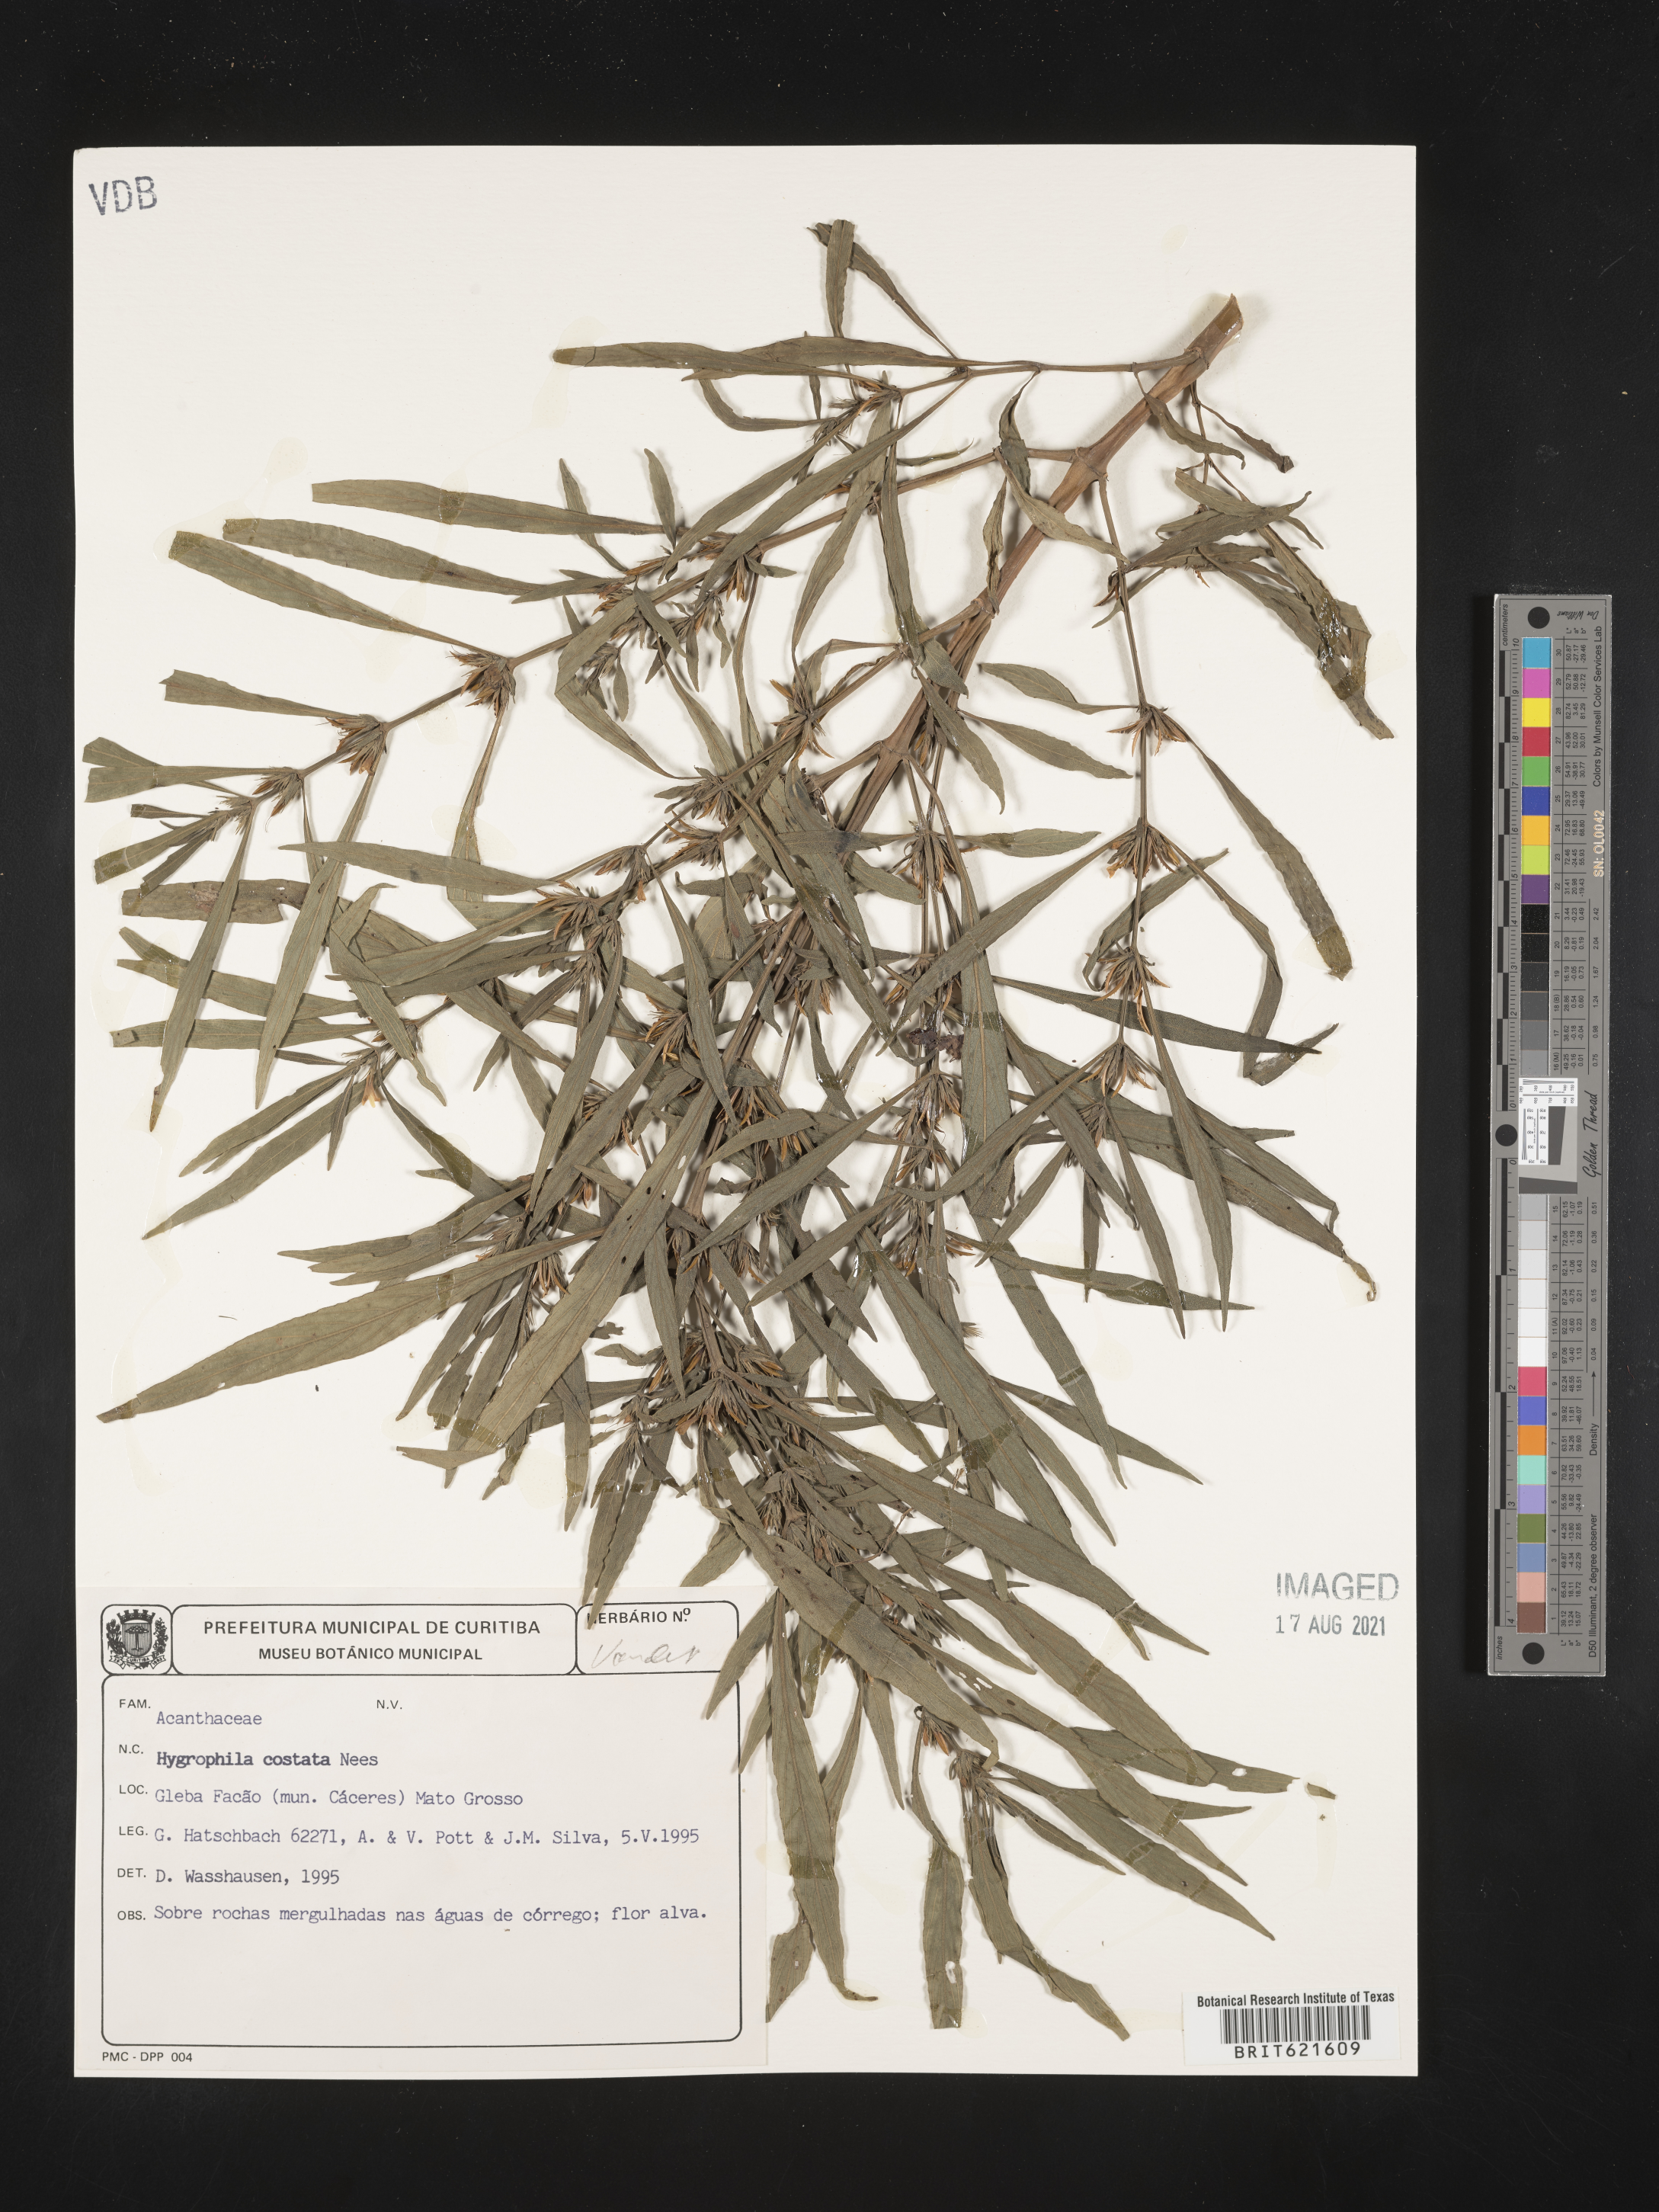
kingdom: Plantae
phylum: Tracheophyta
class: Magnoliopsida
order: Lamiales
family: Acanthaceae
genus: Hygrophila
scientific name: Hygrophila costata
